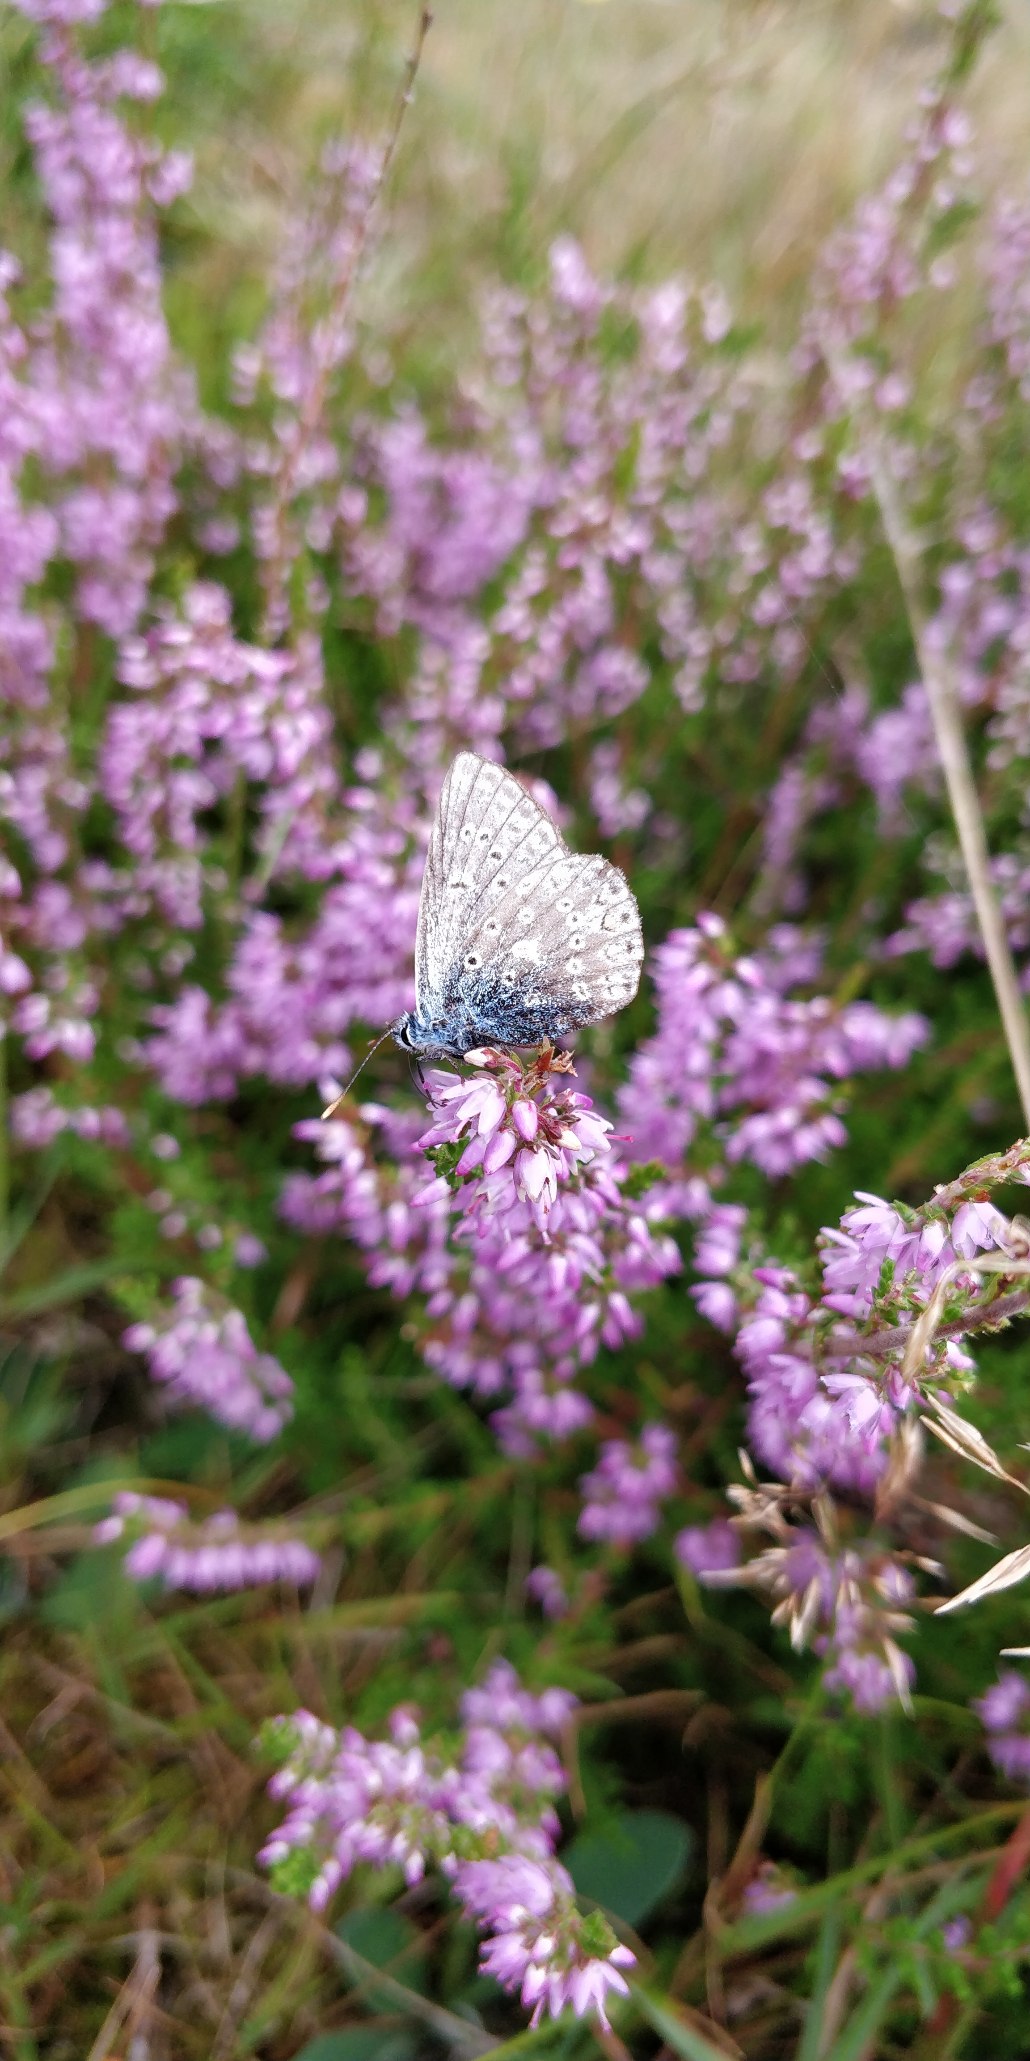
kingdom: Animalia
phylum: Arthropoda
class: Insecta
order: Lepidoptera
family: Lycaenidae
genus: Polyommatus
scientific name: Polyommatus icarus
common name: Almindelig blåfugl
